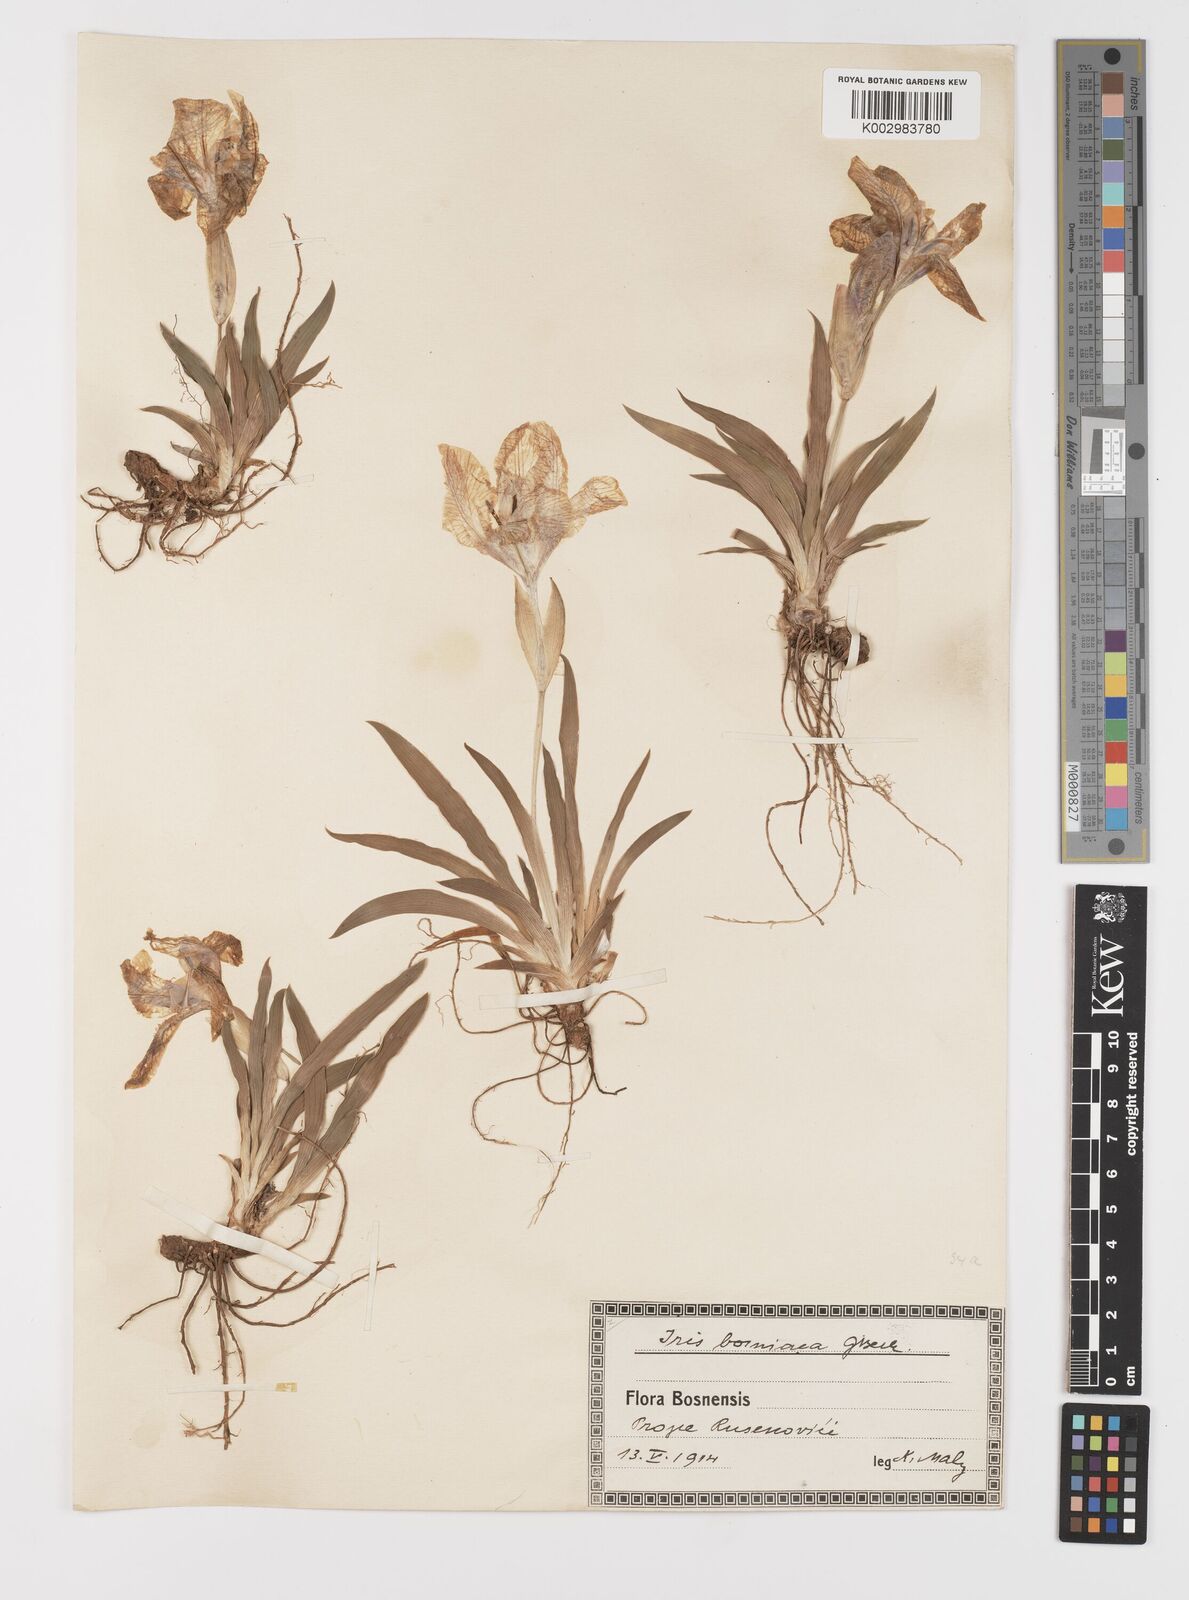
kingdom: Plantae
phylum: Tracheophyta
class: Liliopsida
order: Asparagales
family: Iridaceae
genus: Iris
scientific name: Iris reichenbachii
